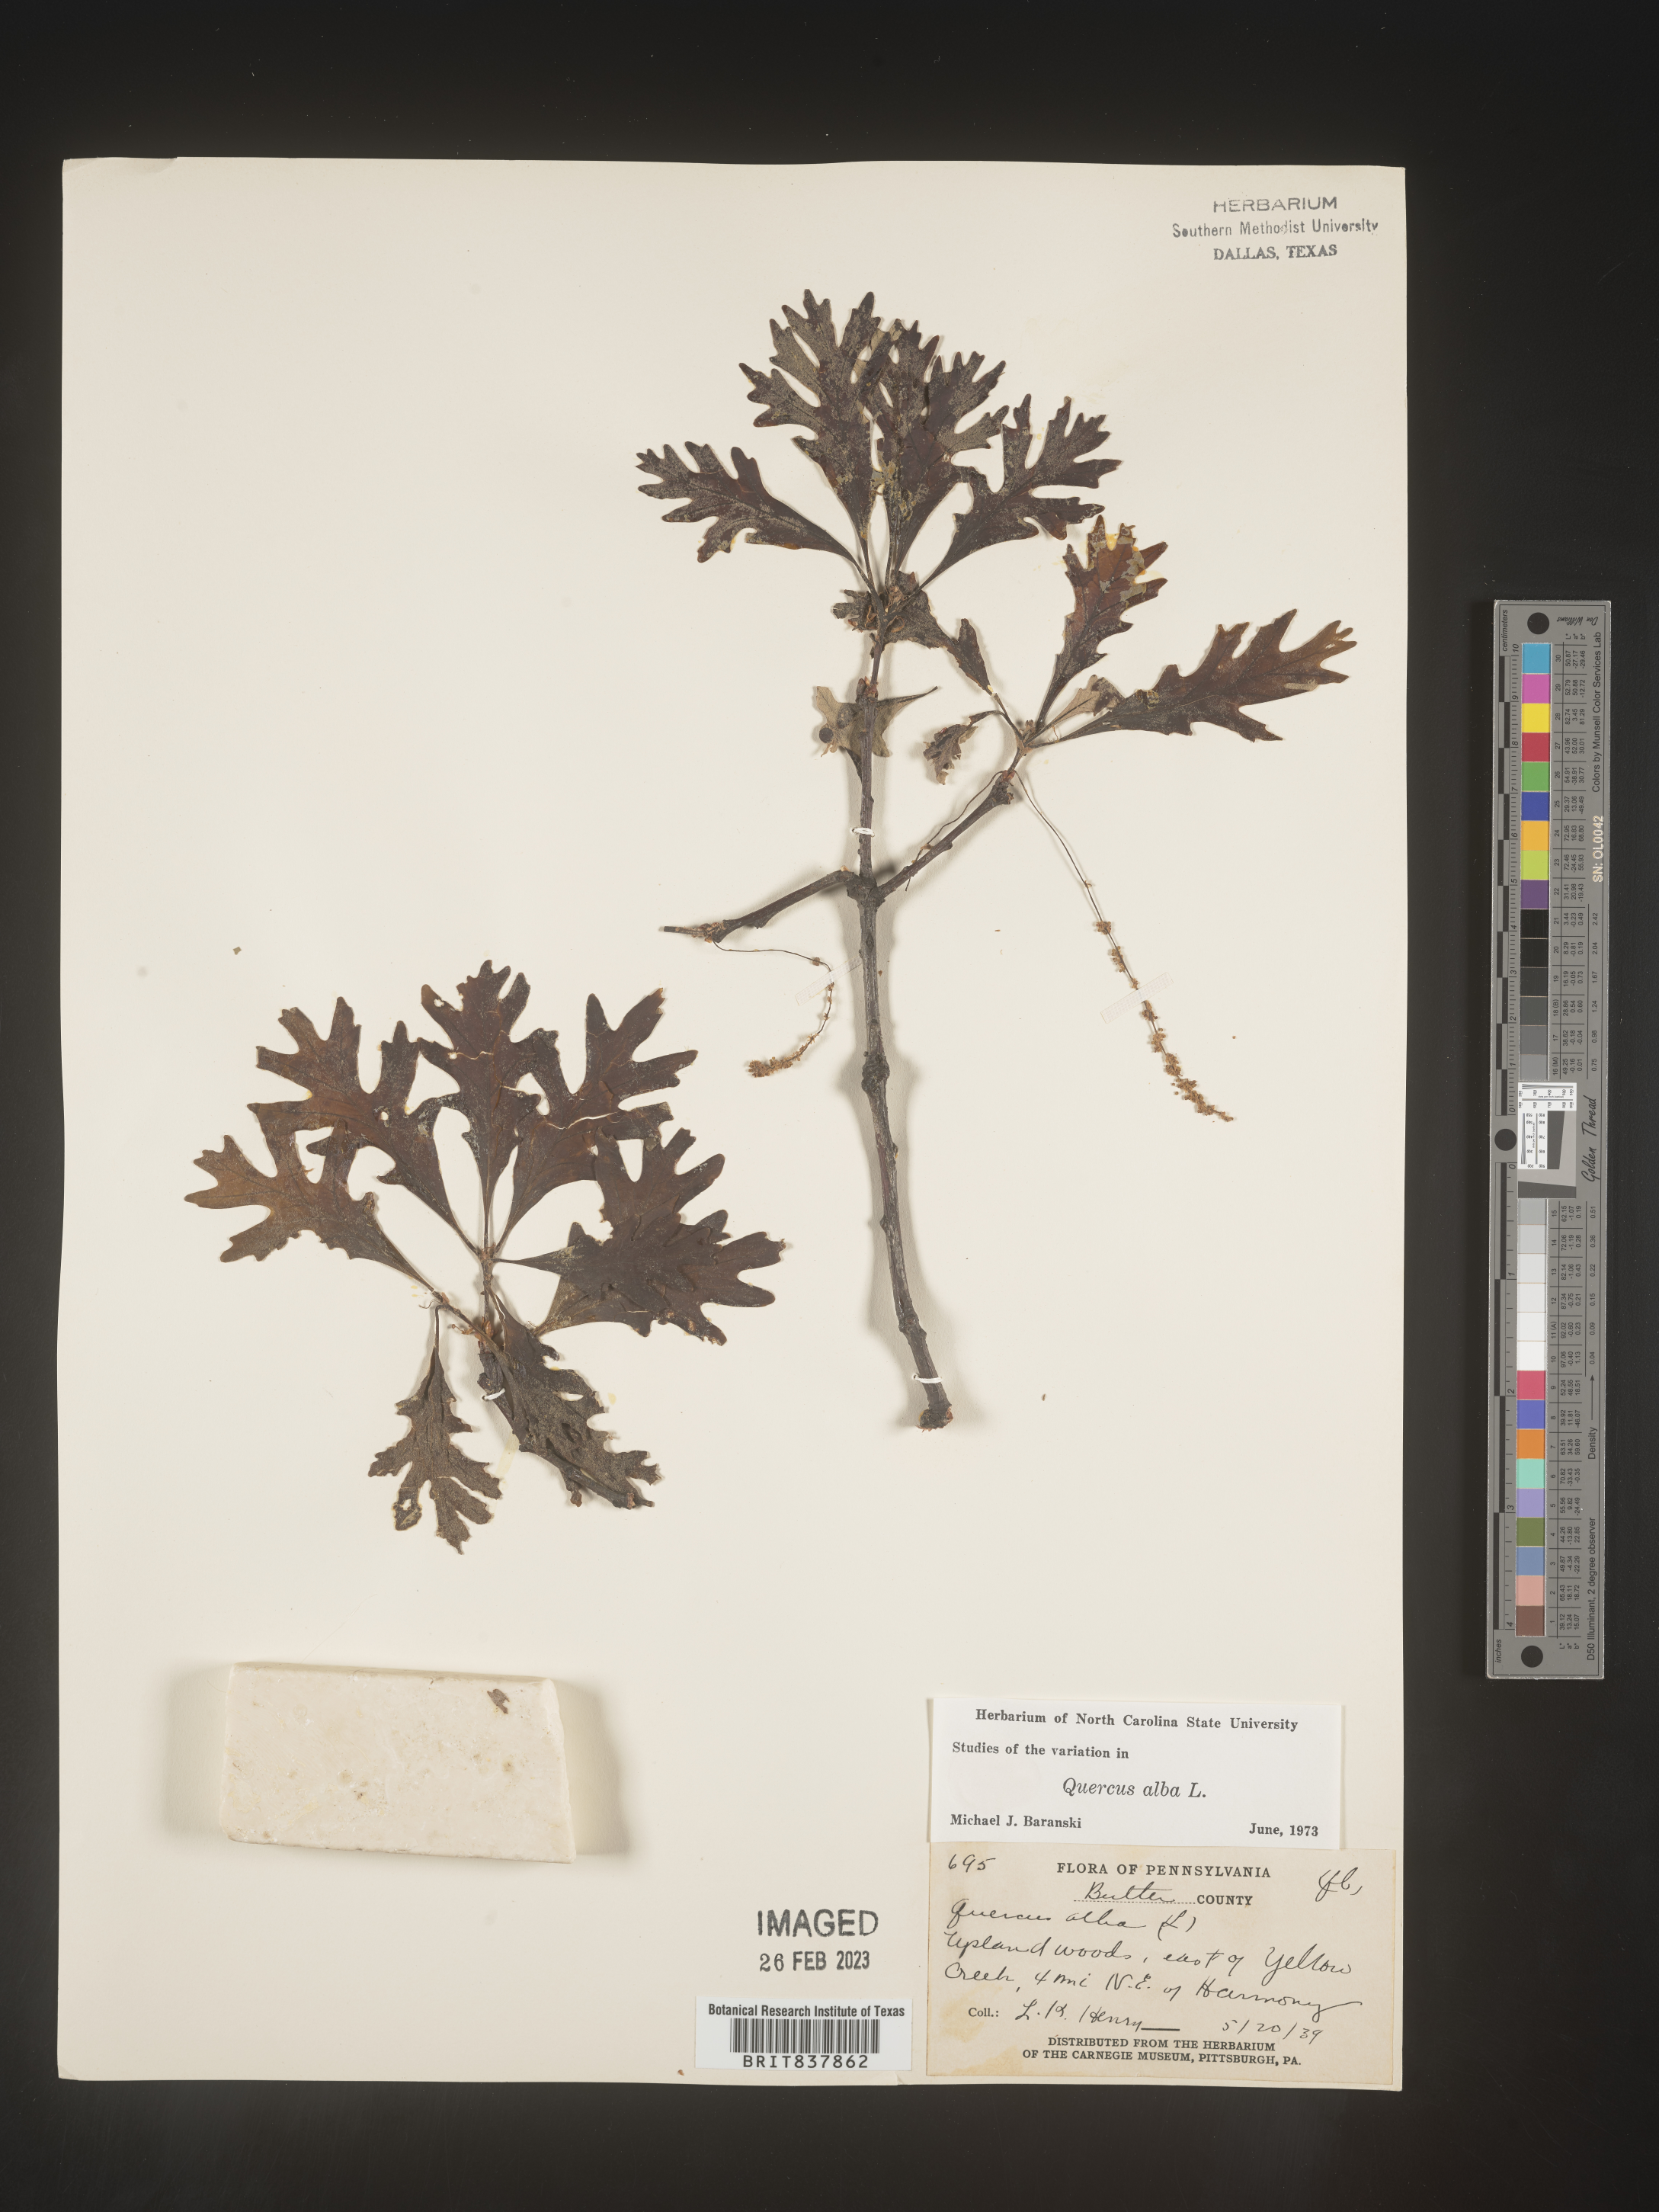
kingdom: Plantae
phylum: Tracheophyta
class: Magnoliopsida
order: Fagales
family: Fagaceae
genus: Quercus
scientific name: Quercus alba
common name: White oak
